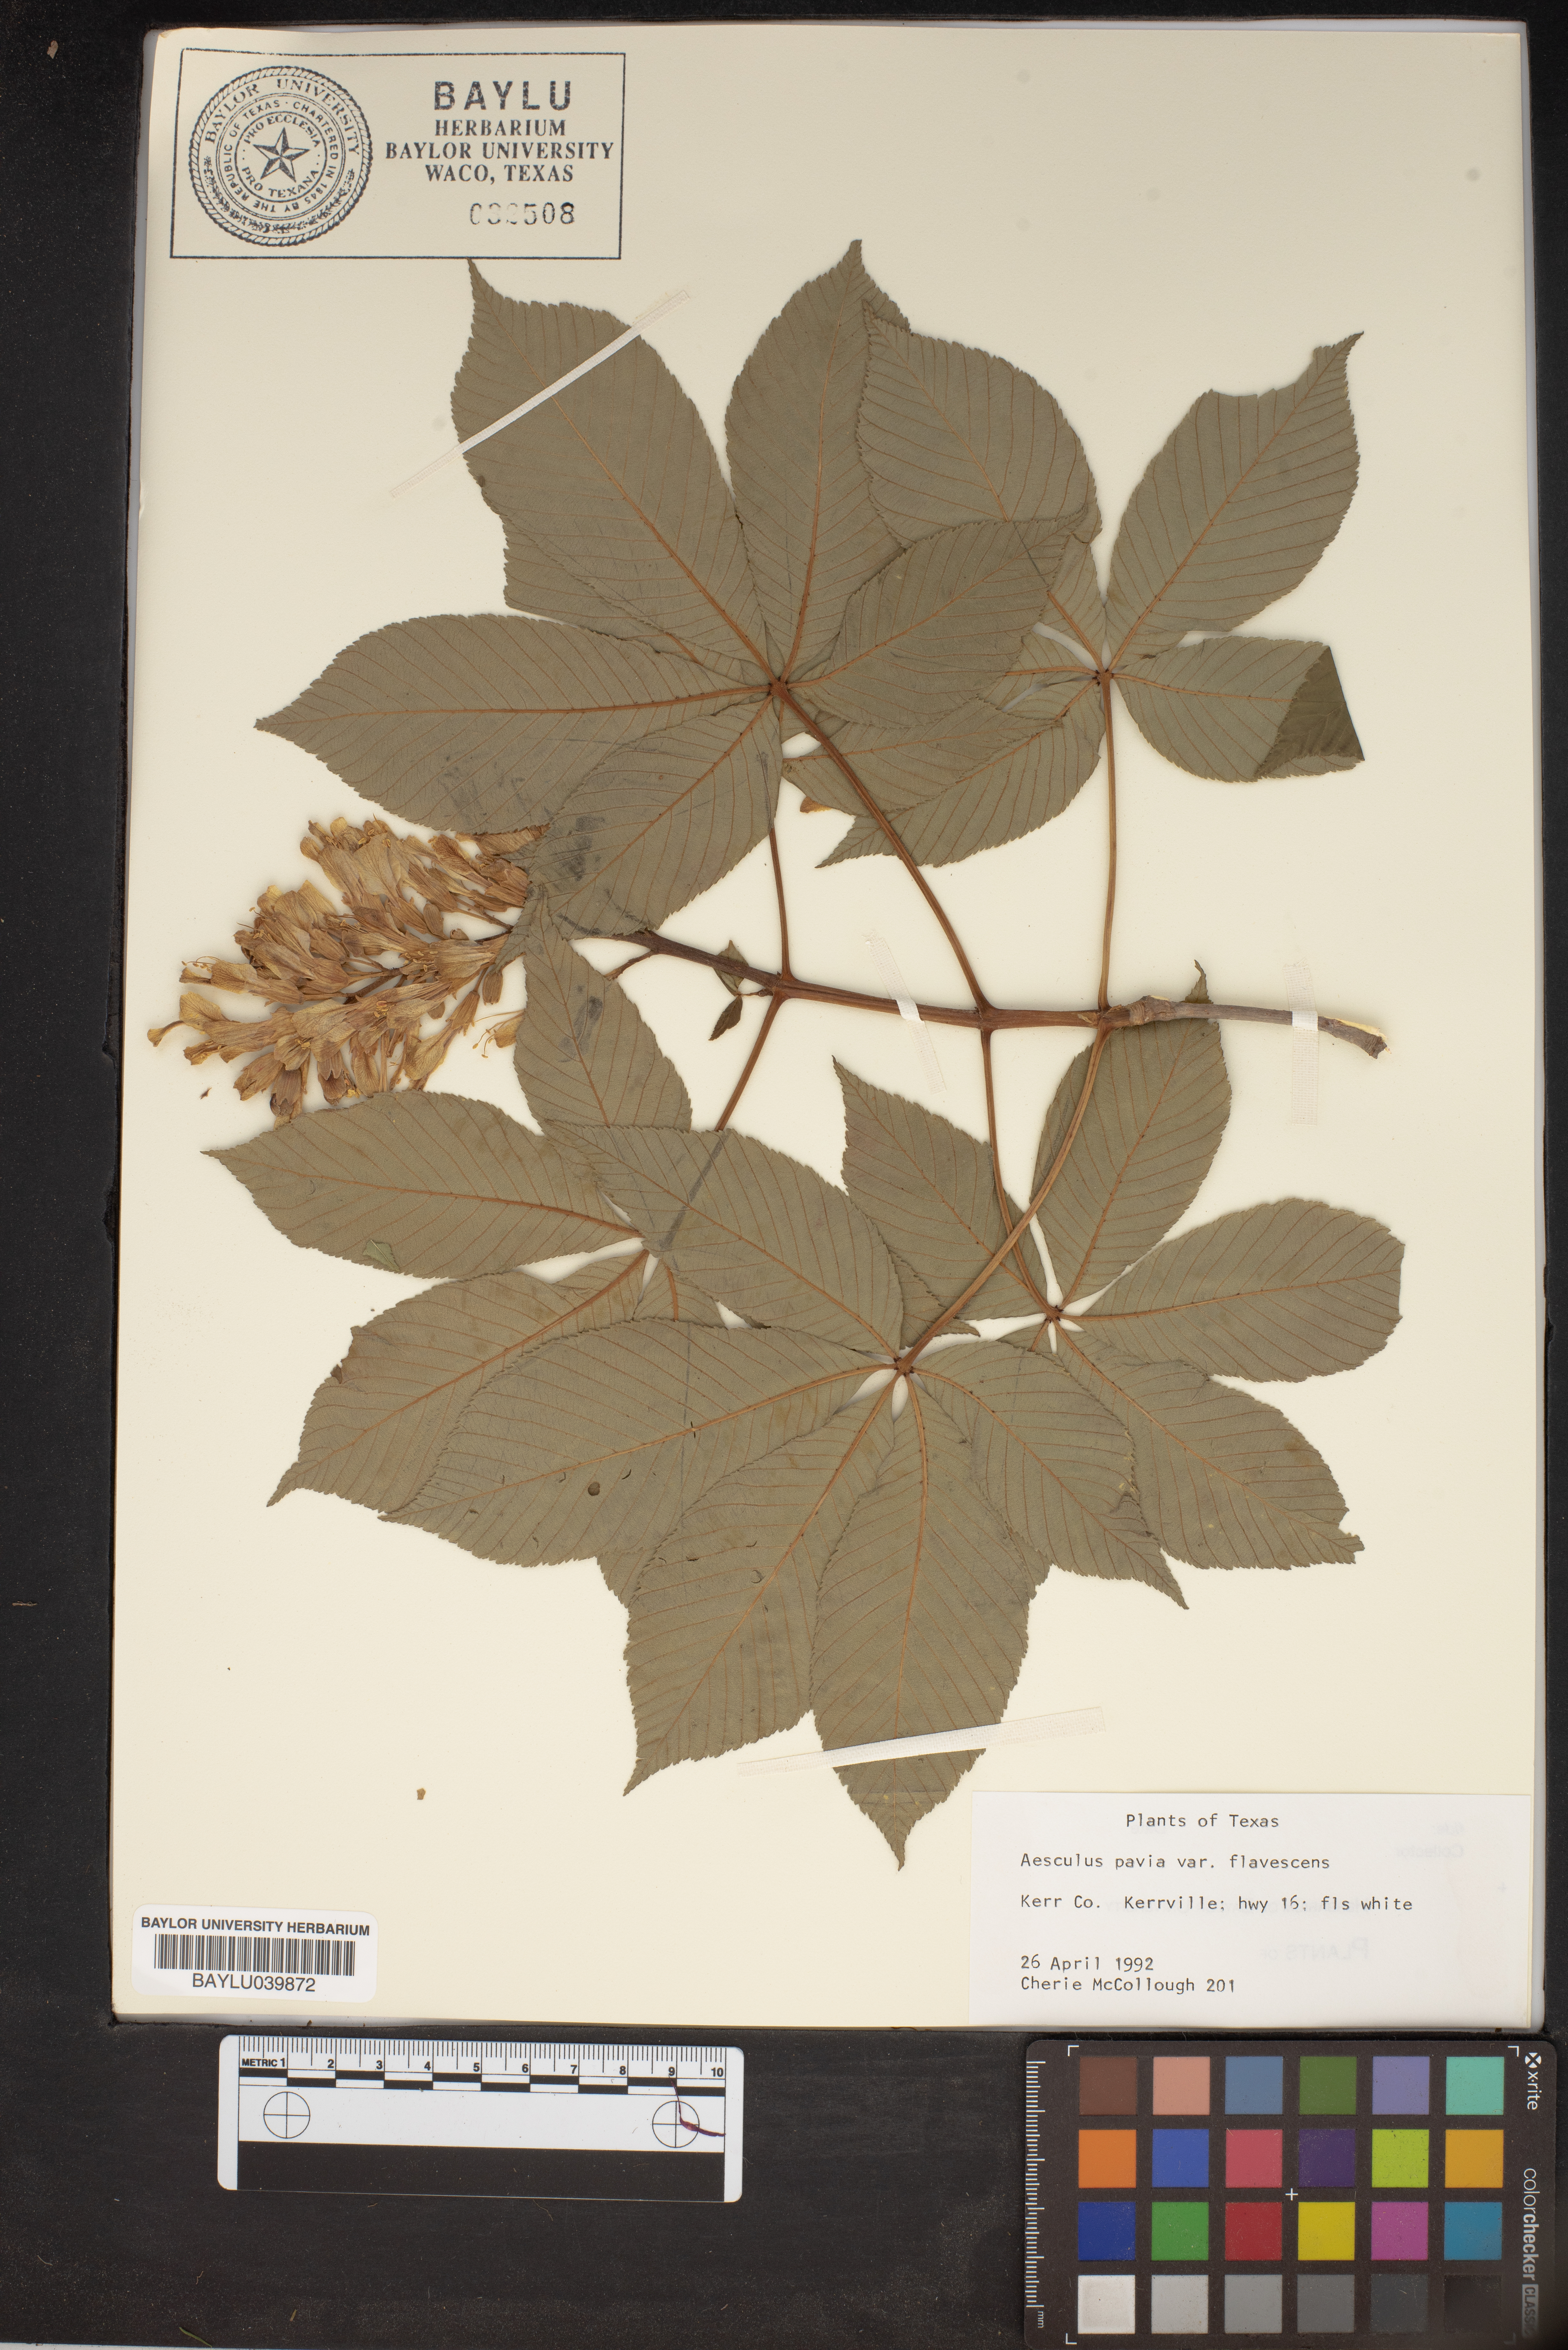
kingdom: Plantae
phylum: Tracheophyta
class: Magnoliopsida
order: Sapindales
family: Sapindaceae
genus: Aesculus
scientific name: Aesculus pavia
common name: Red buckeye
